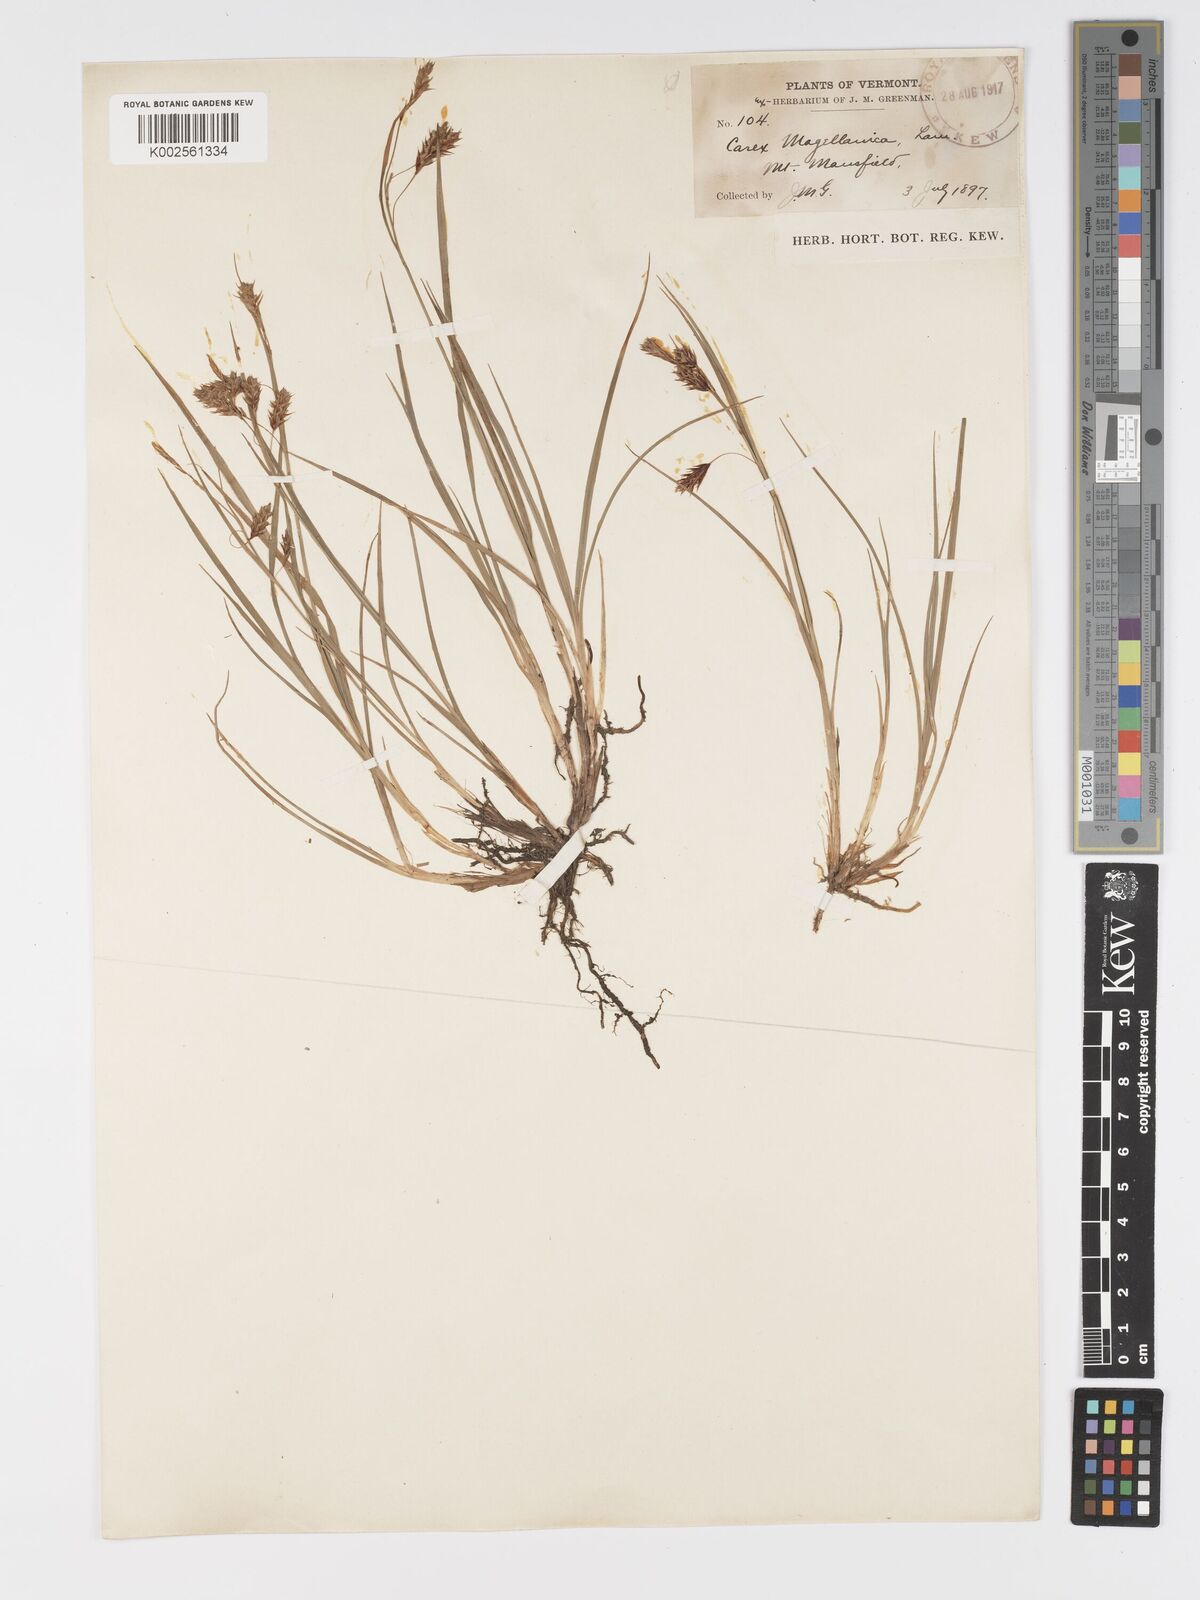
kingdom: Plantae
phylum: Tracheophyta
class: Liliopsida
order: Poales
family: Cyperaceae
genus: Carex
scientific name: Carex magellanica
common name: Bog sedge
